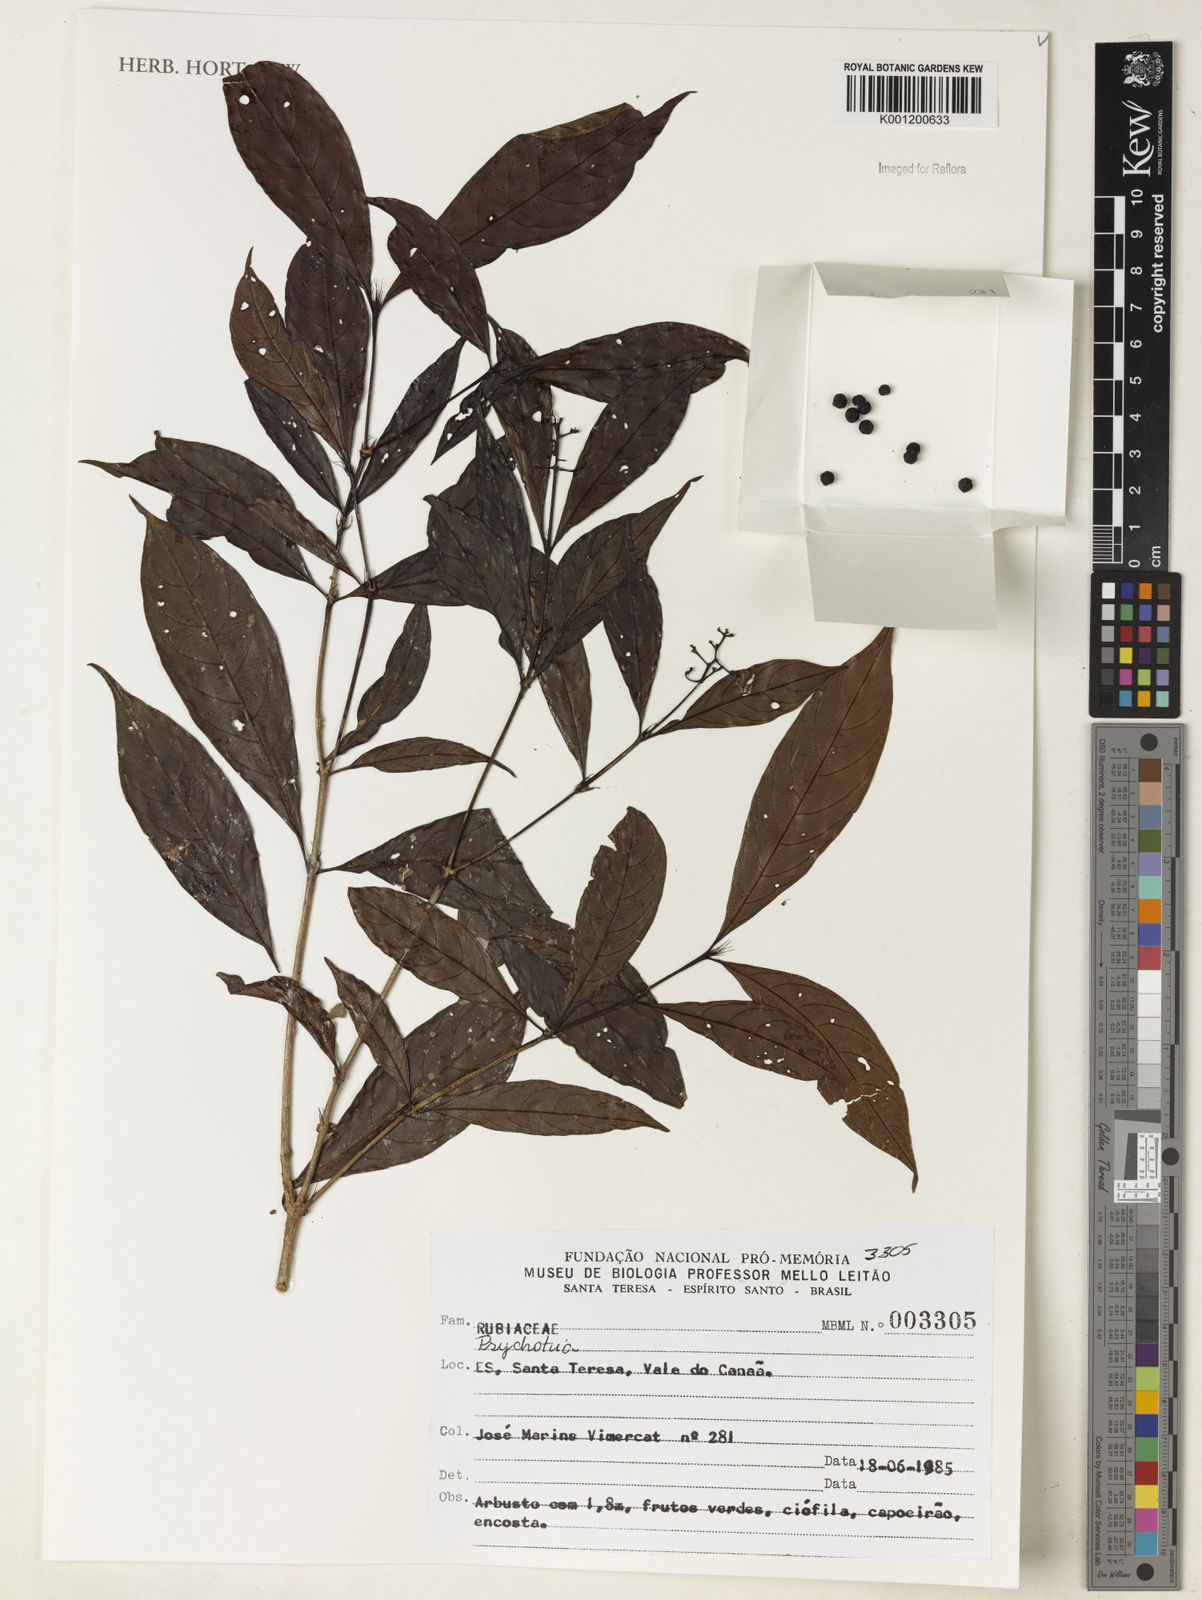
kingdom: Plantae
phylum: Tracheophyta
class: Magnoliopsida
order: Gentianales
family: Rubiaceae
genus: Psychotria
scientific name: Psychotria
